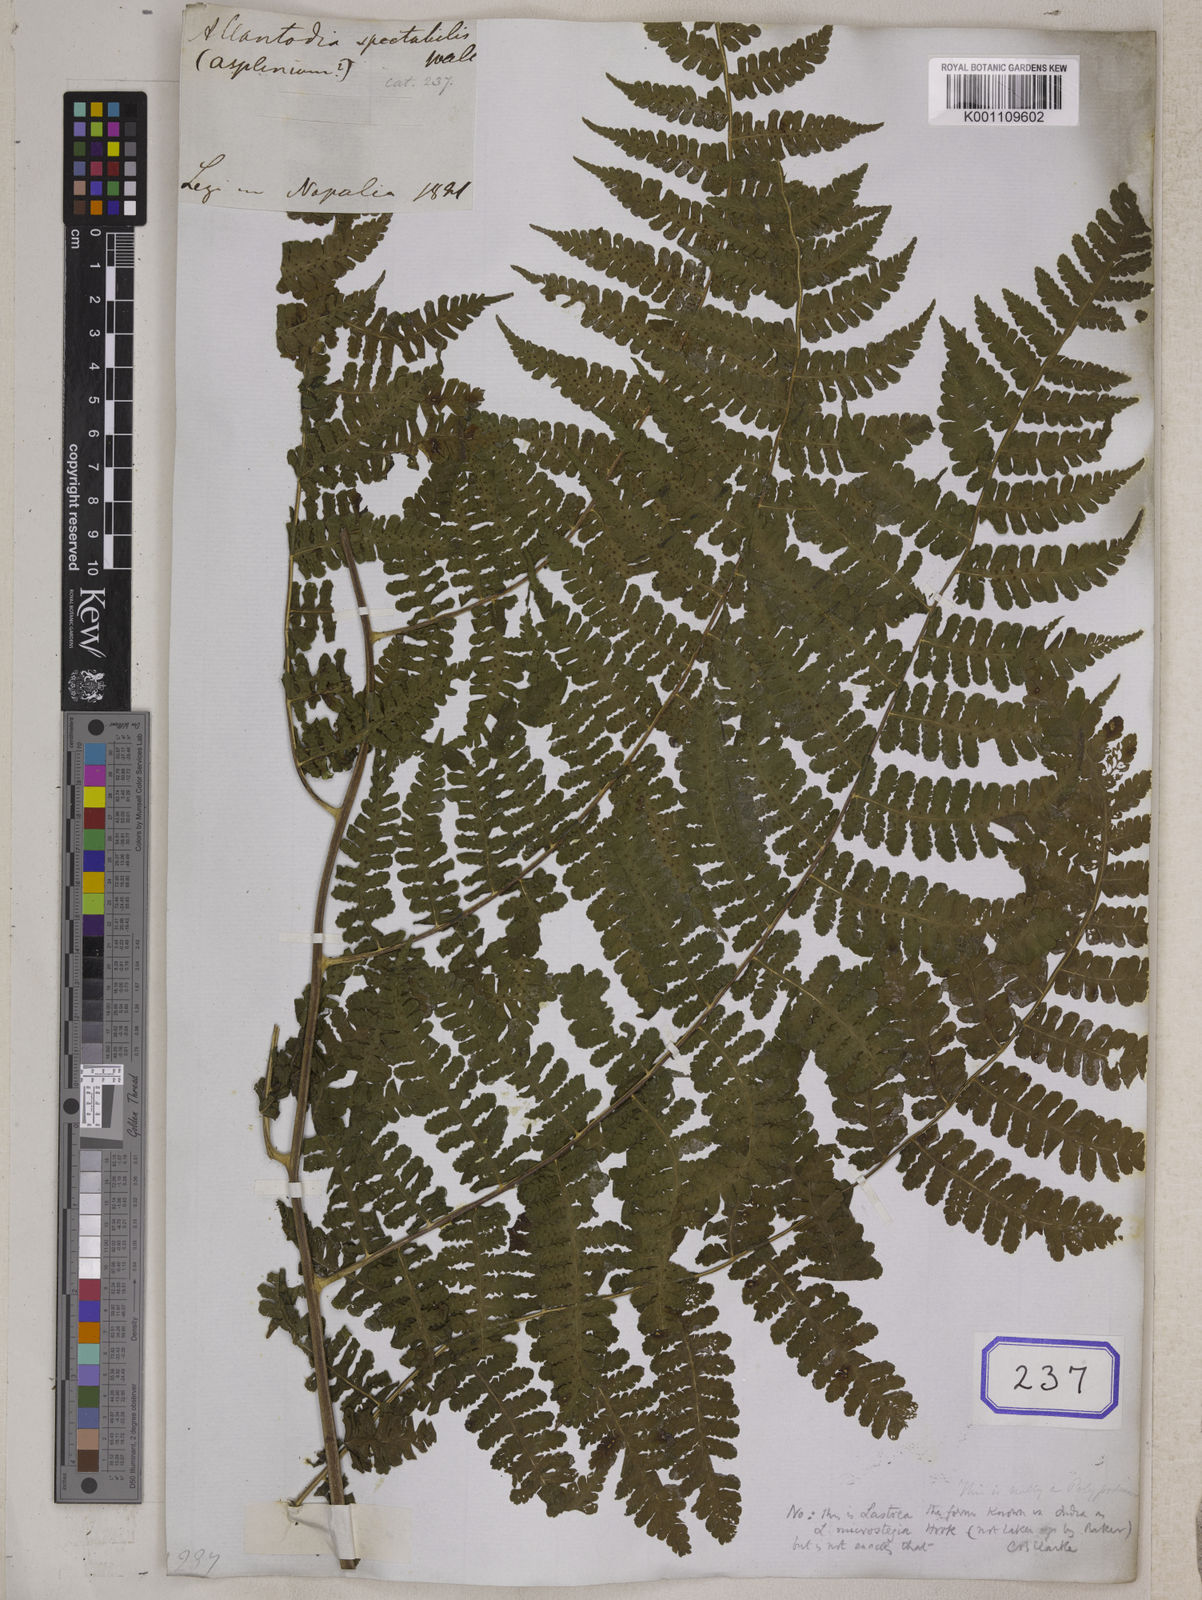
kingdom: Plantae
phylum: Tracheophyta
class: Polypodiopsida
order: Polypodiales
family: Athyriaceae
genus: Diplazium
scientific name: Diplazium spectabile
